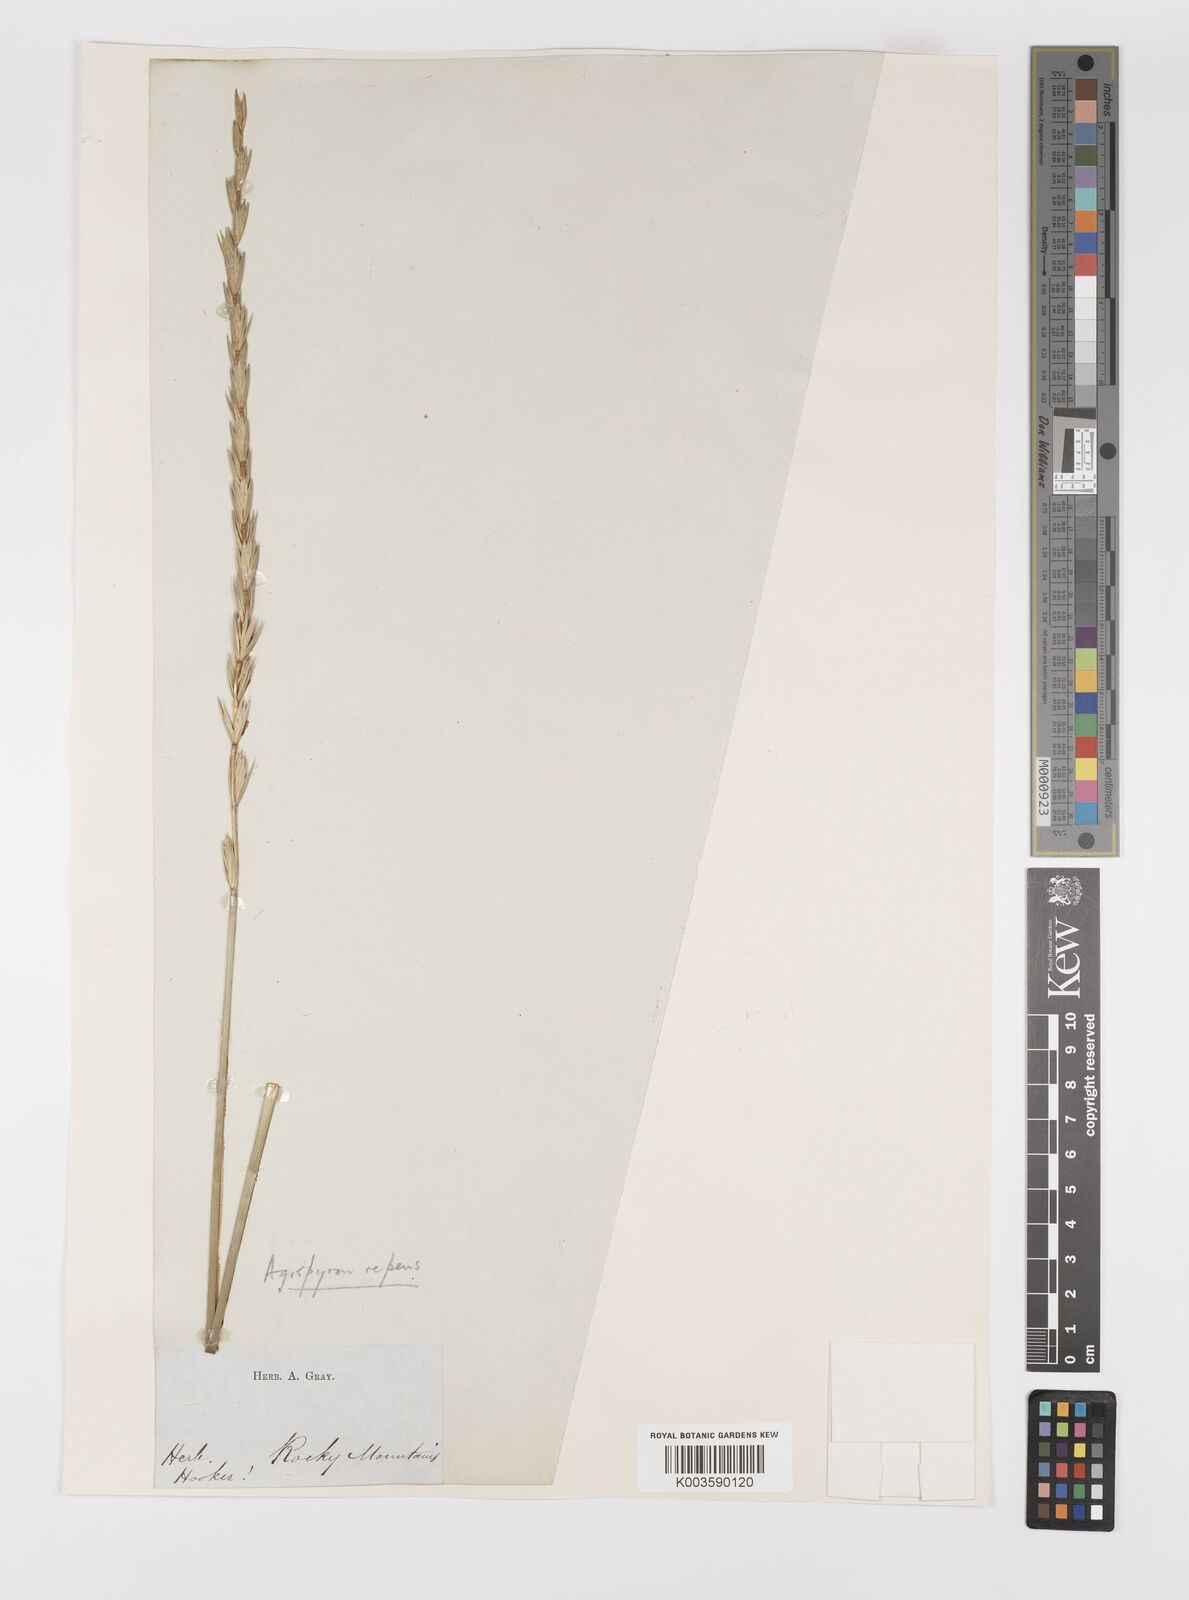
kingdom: Plantae
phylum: Tracheophyta
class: Liliopsida
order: Poales
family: Poaceae
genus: Elymus
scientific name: Elymus repens
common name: Quackgrass
